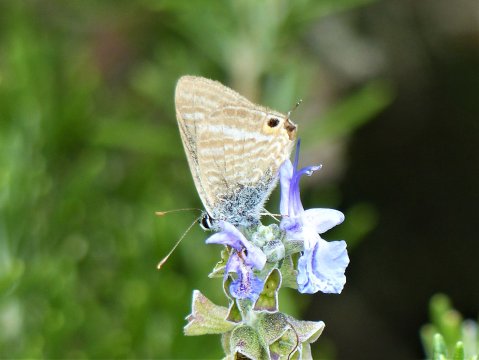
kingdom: Animalia
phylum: Arthropoda
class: Insecta
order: Lepidoptera
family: Lycaenidae
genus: Lampides
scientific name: Lampides boeticus
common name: Pea Blue
